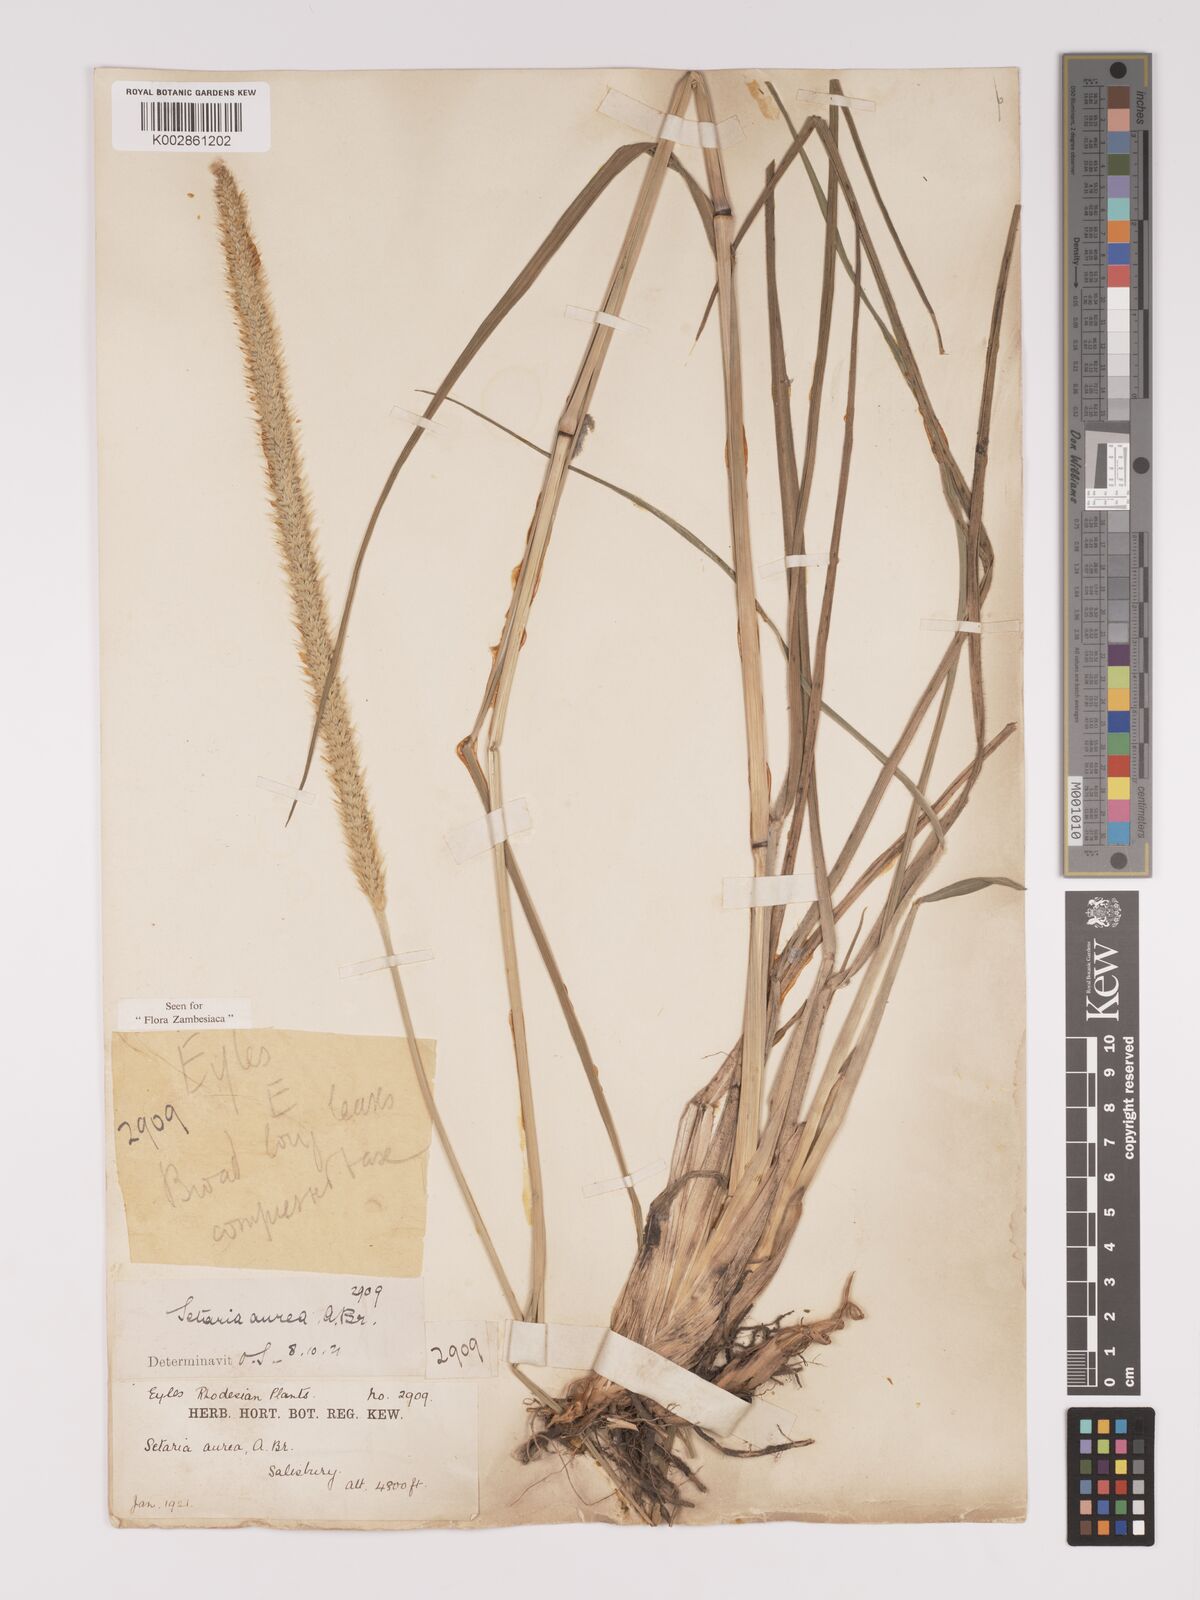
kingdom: Plantae
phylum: Tracheophyta
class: Liliopsida
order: Poales
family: Poaceae
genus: Setaria
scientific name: Setaria sphacelata
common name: African bristlegrass
